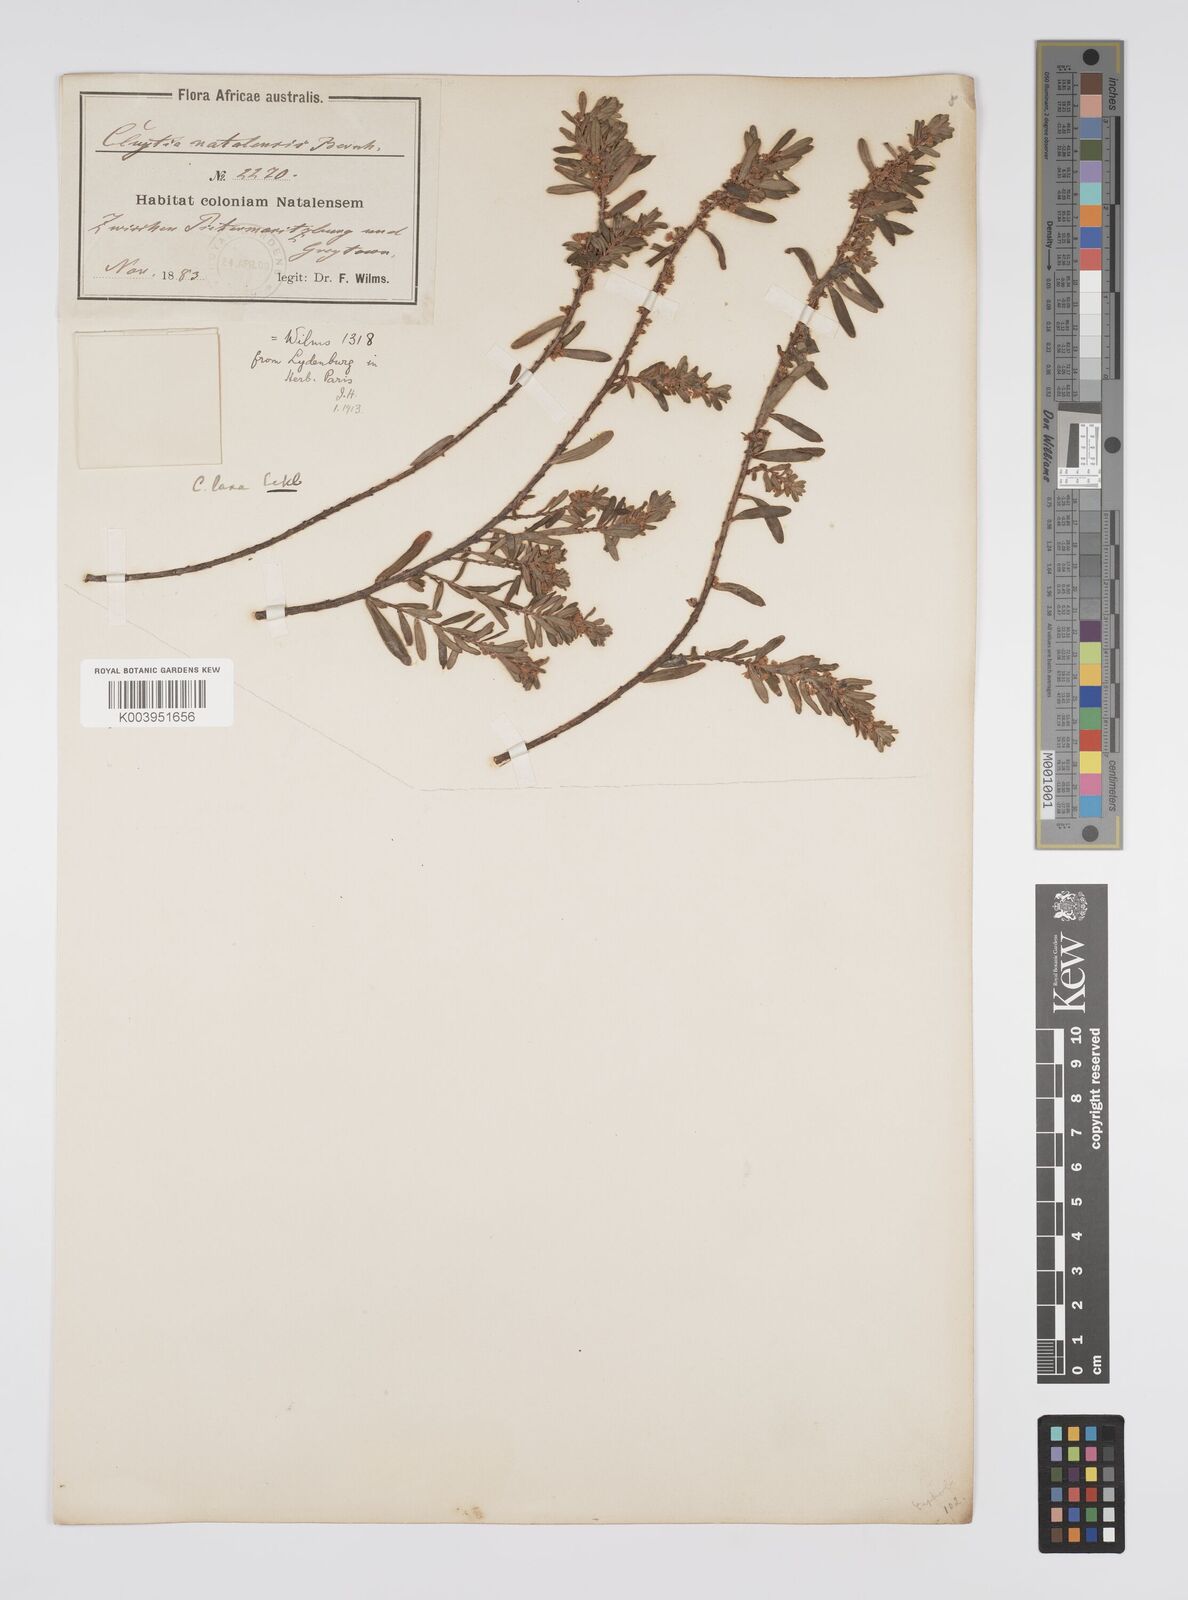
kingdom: Plantae
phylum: Tracheophyta
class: Magnoliopsida
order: Malpighiales
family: Peraceae
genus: Clutia
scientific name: Clutia laxa
